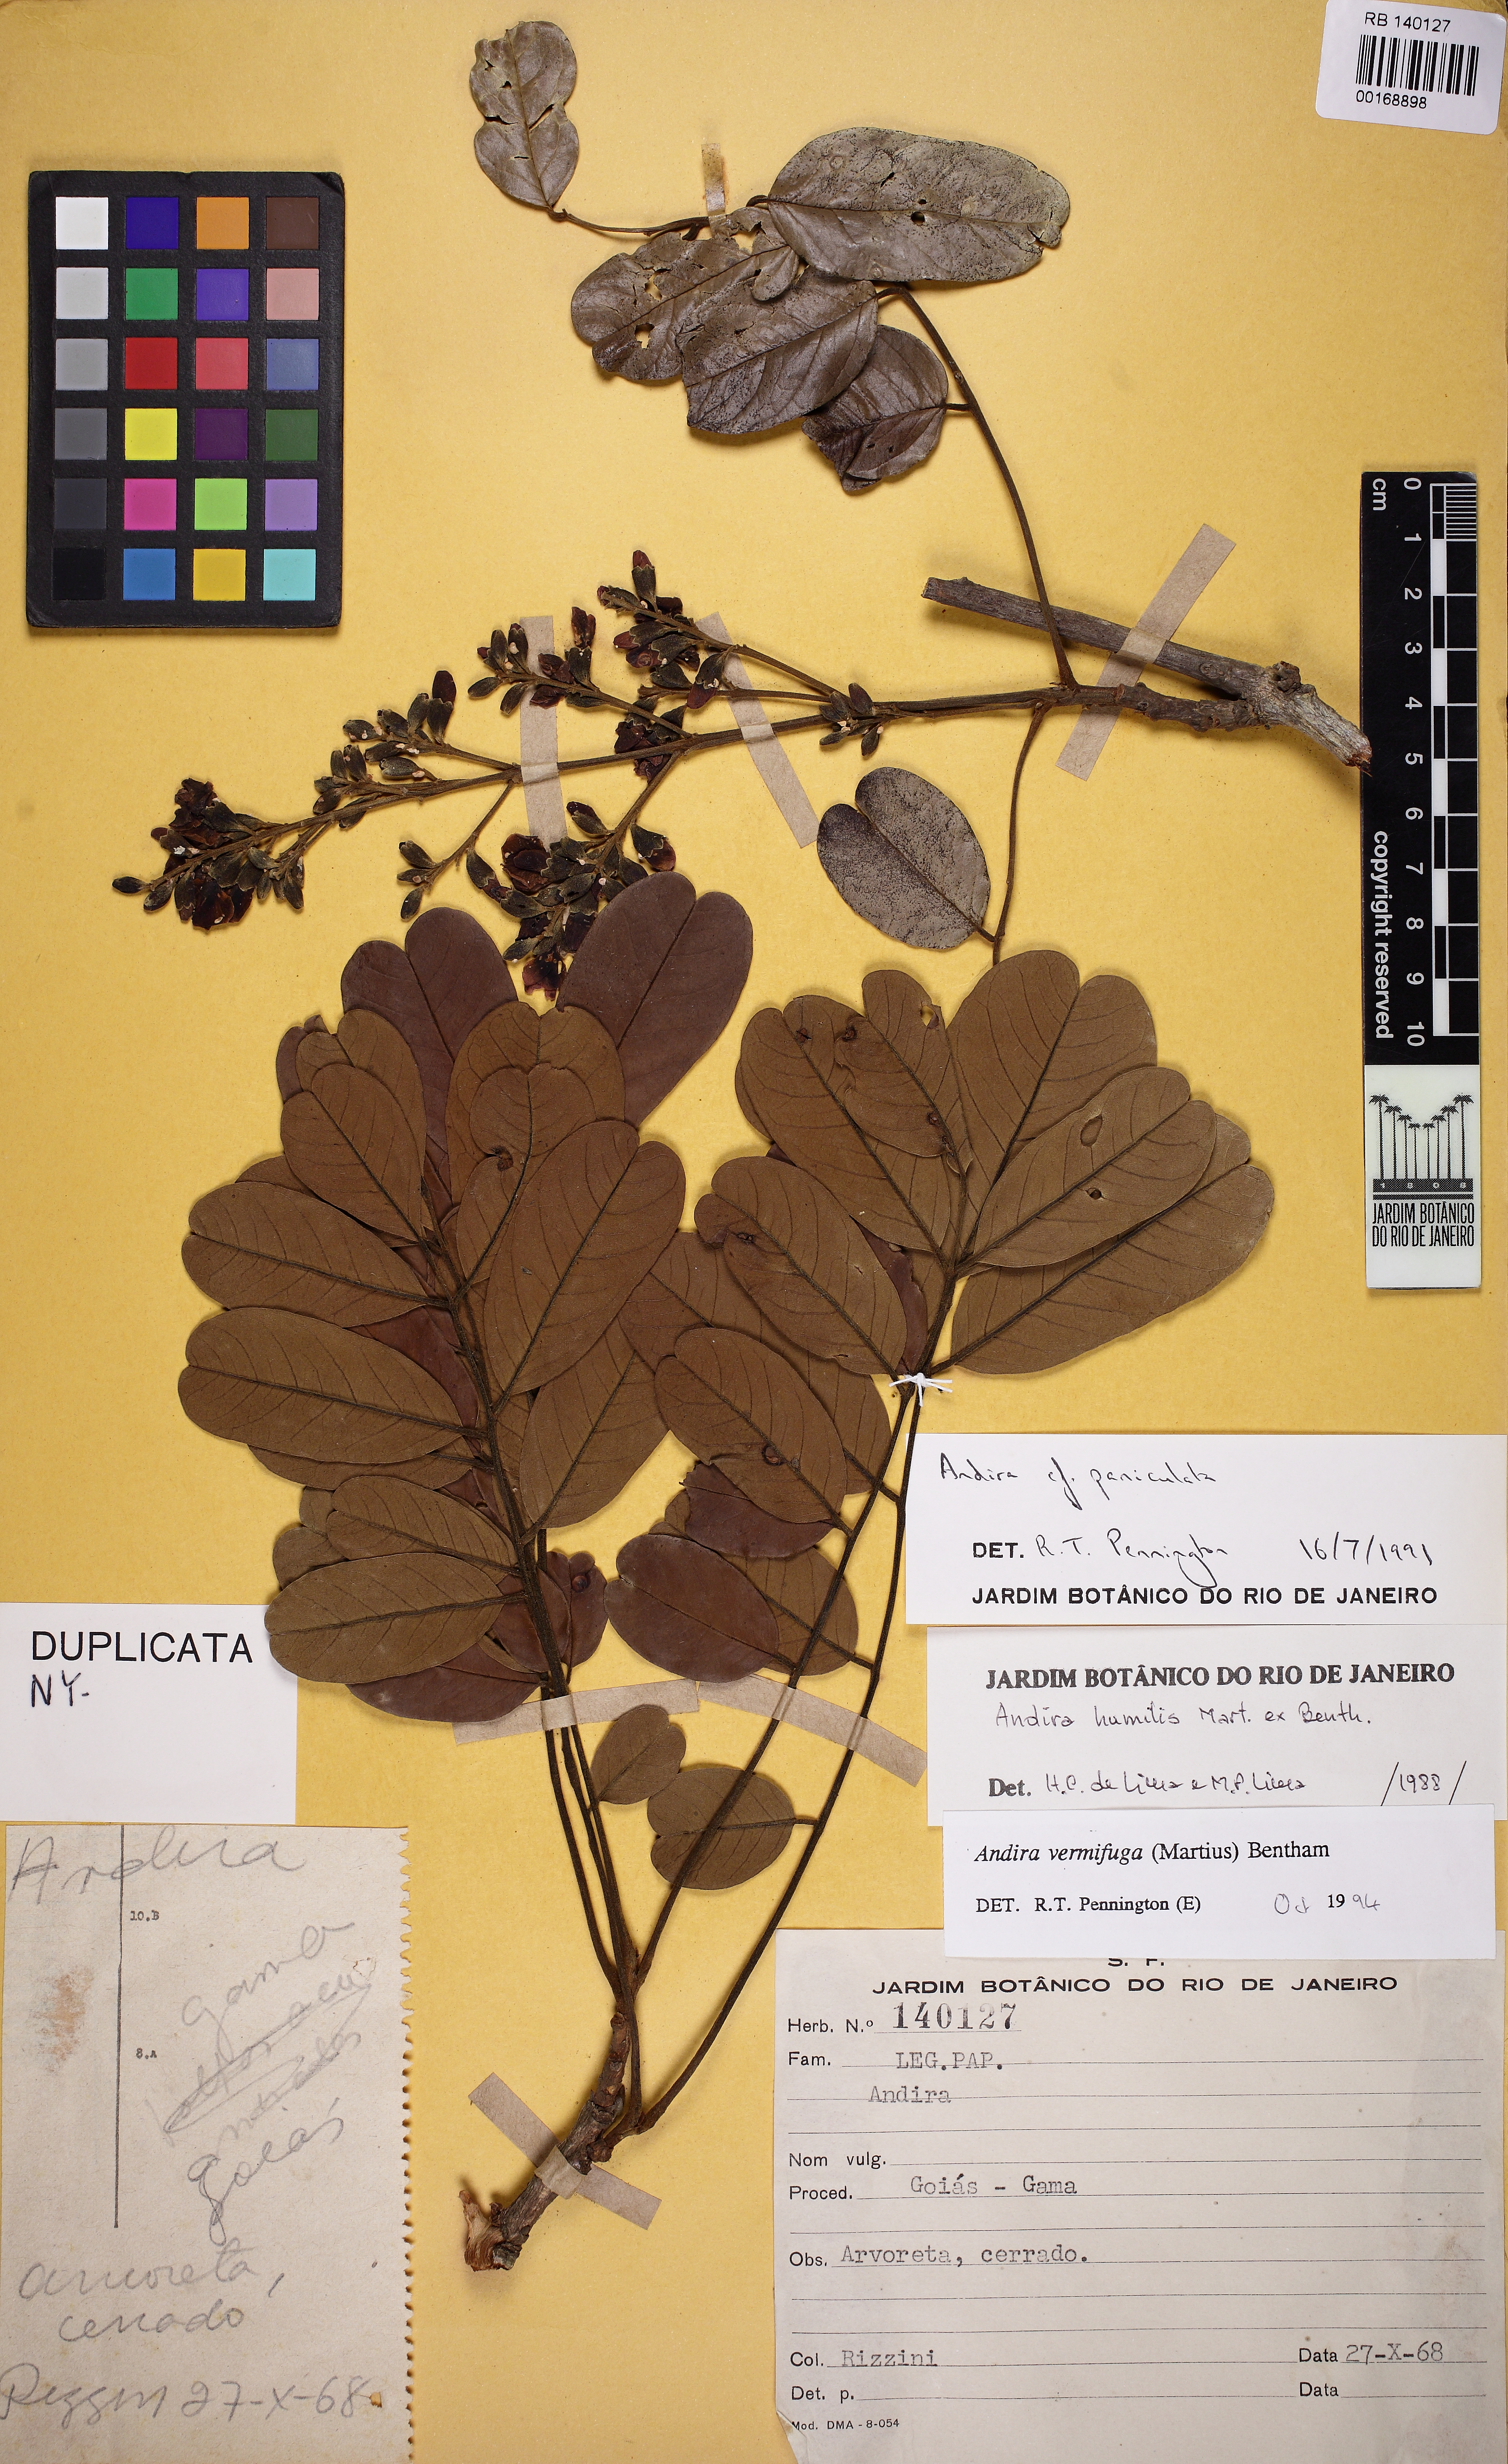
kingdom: Plantae
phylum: Tracheophyta
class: Magnoliopsida
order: Fabales
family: Fabaceae
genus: Andira
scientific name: Andira vermifuga
